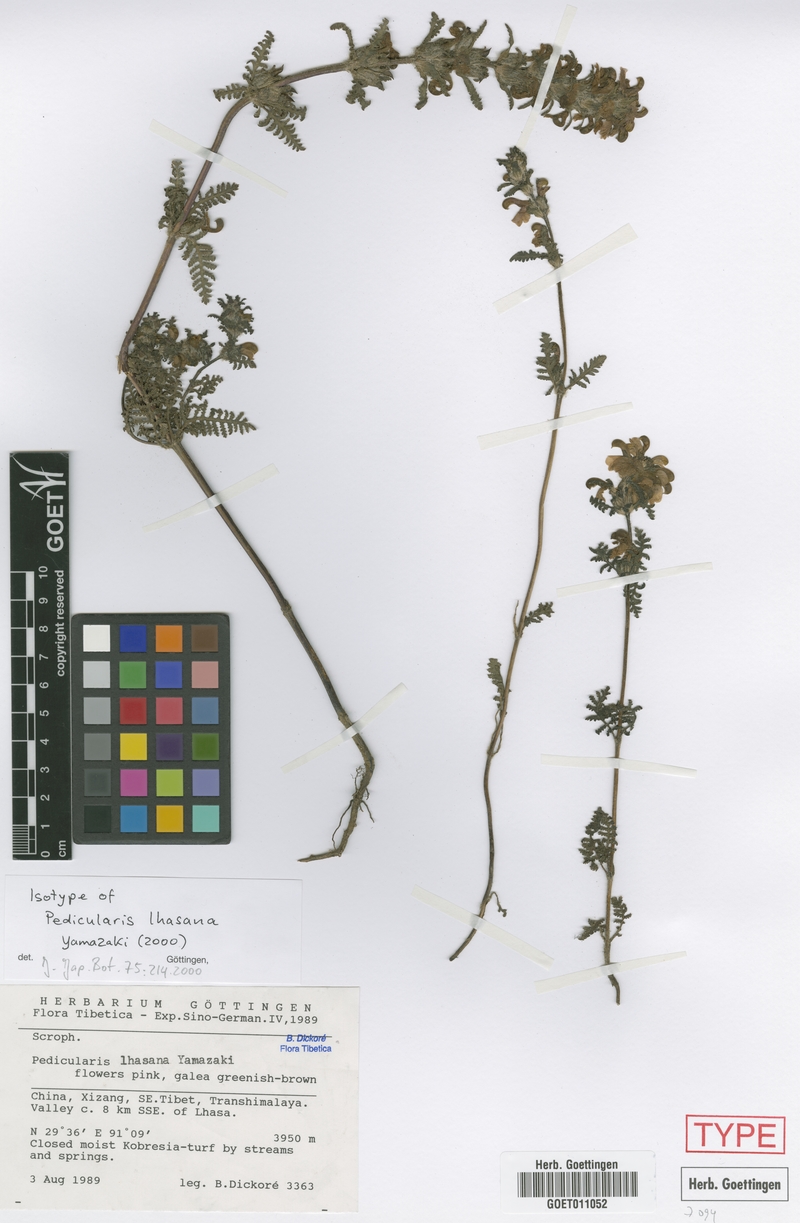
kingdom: Plantae
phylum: Tracheophyta
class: Magnoliopsida
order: Lamiales
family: Orobanchaceae
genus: Pedicularis
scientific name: Pedicularis lhasana
